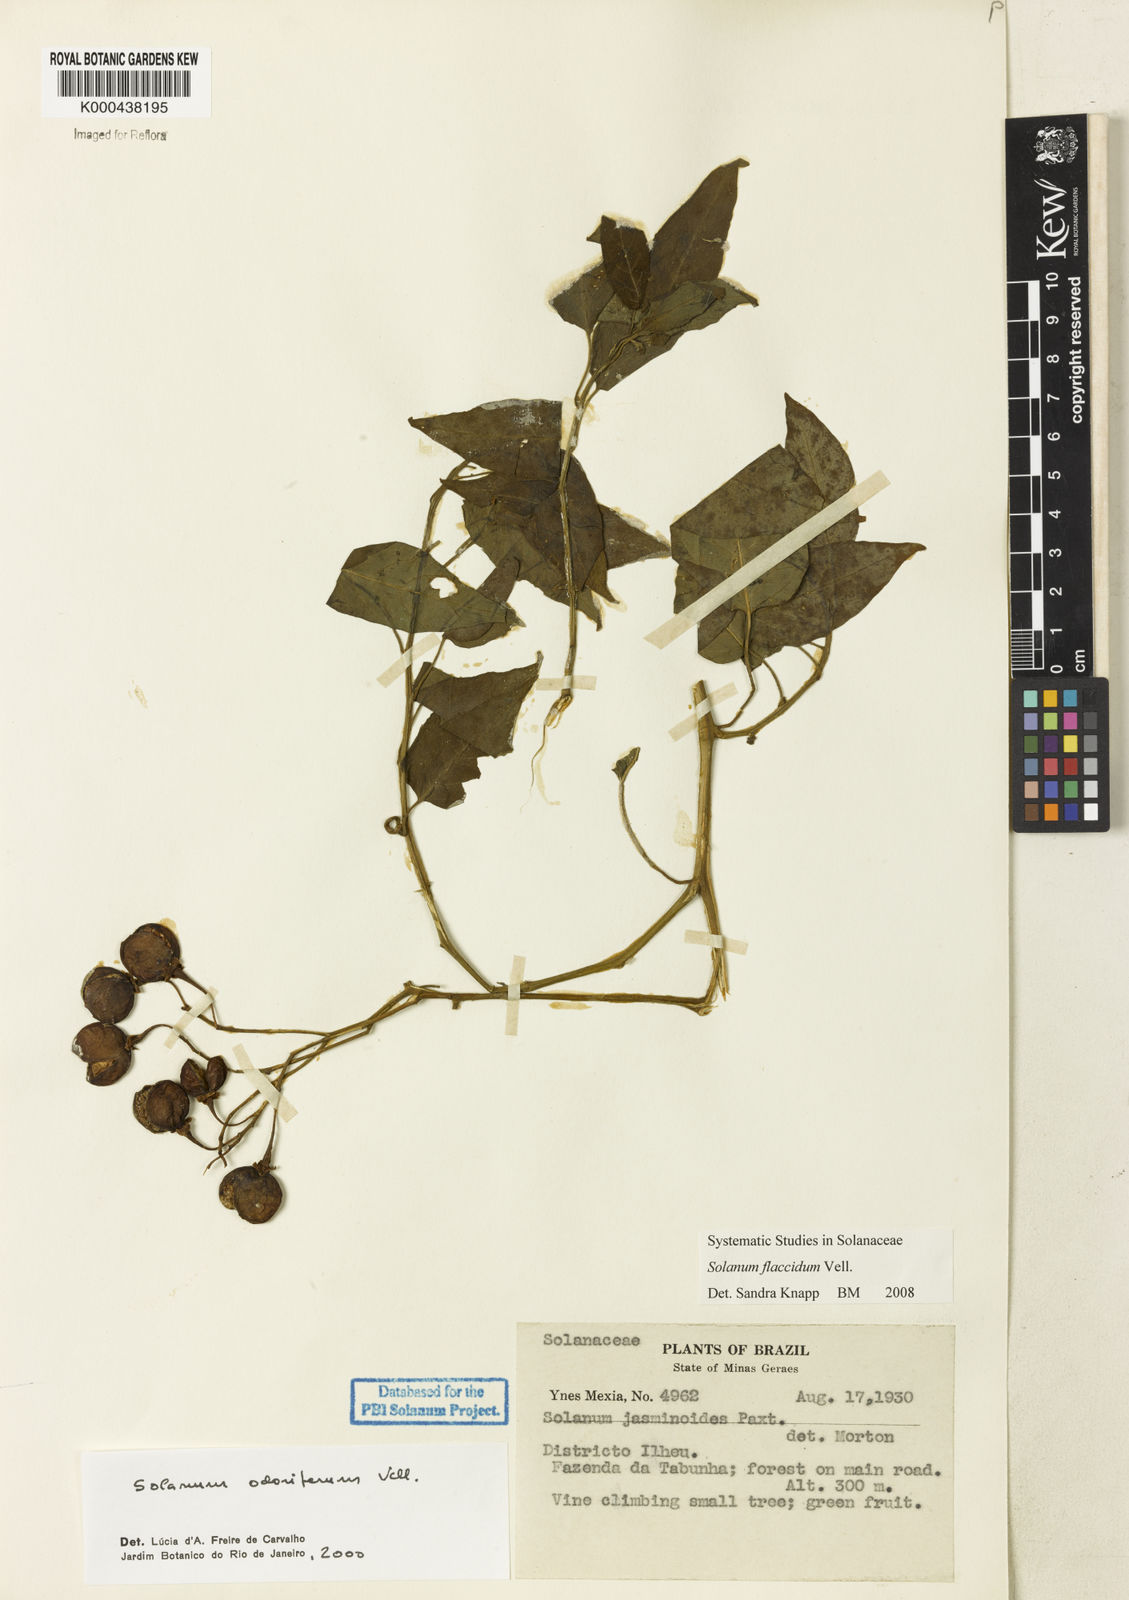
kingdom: Plantae
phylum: Tracheophyta
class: Magnoliopsida
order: Solanales
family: Solanaceae
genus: Solanum
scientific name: Solanum flaccidum
